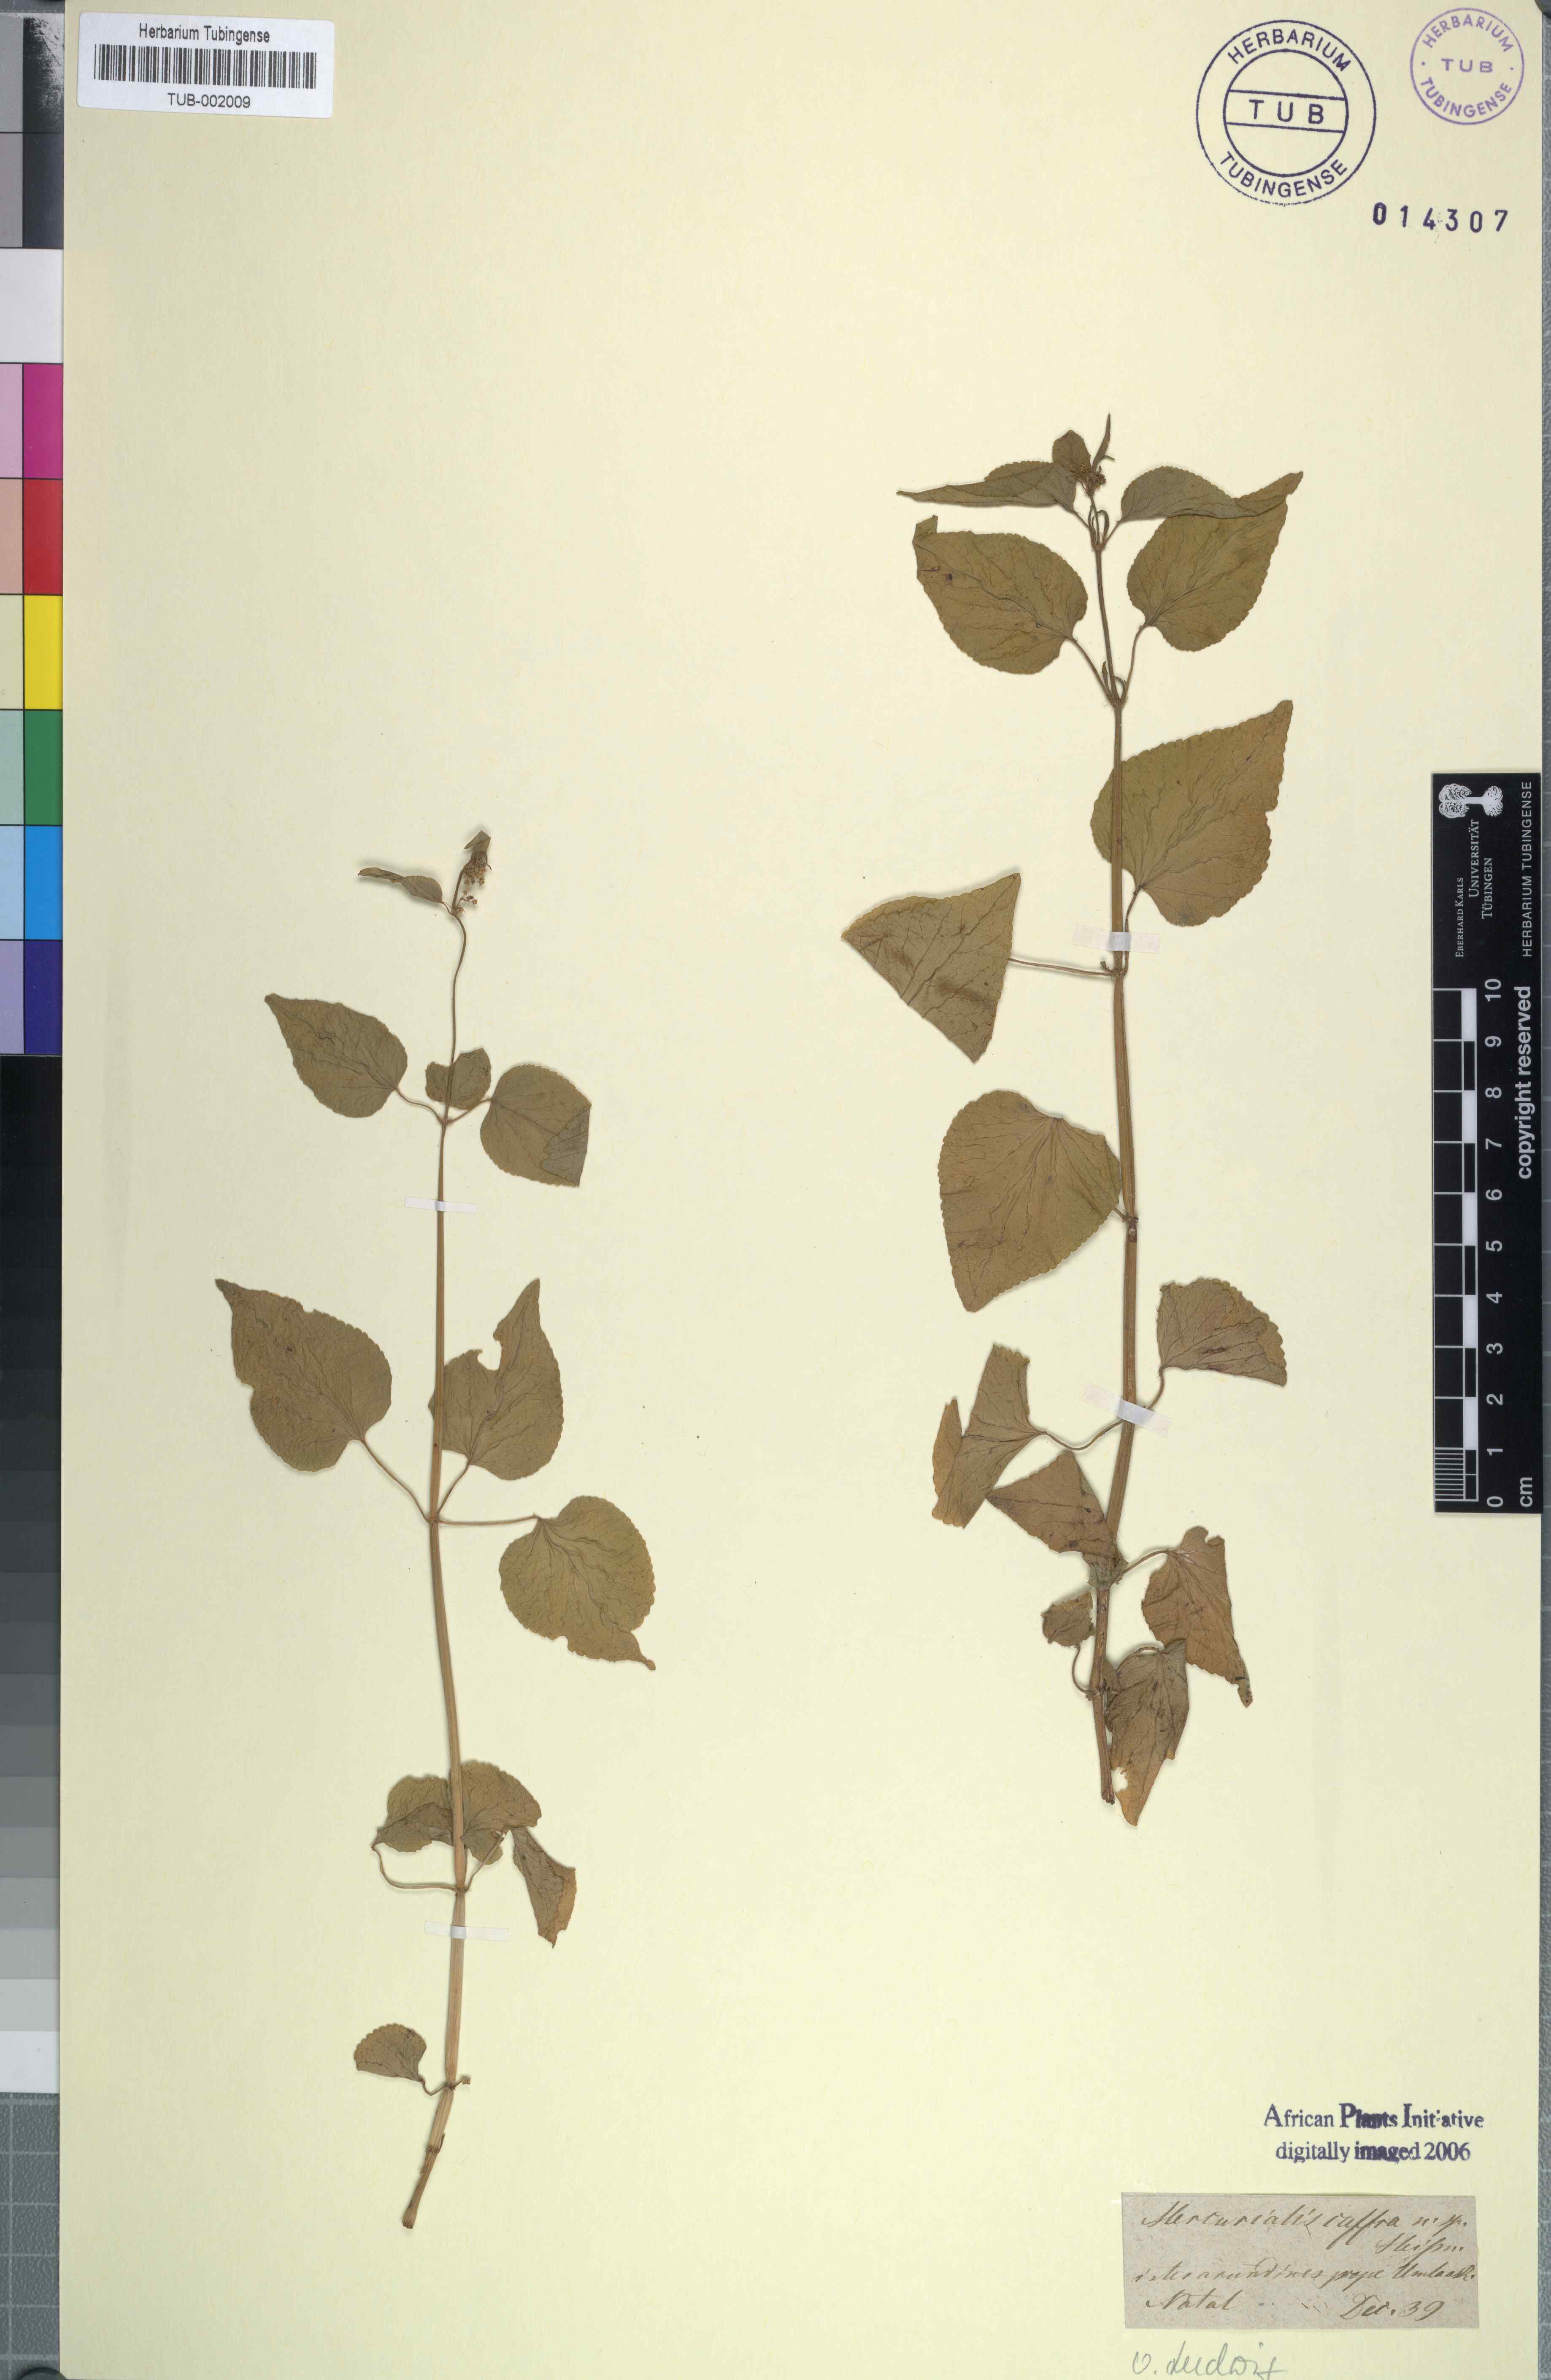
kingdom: Plantae
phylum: Tracheophyta
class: Magnoliopsida
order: Malpighiales
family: Euphorbiaceae
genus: Adenocline
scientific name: Adenocline acuta
